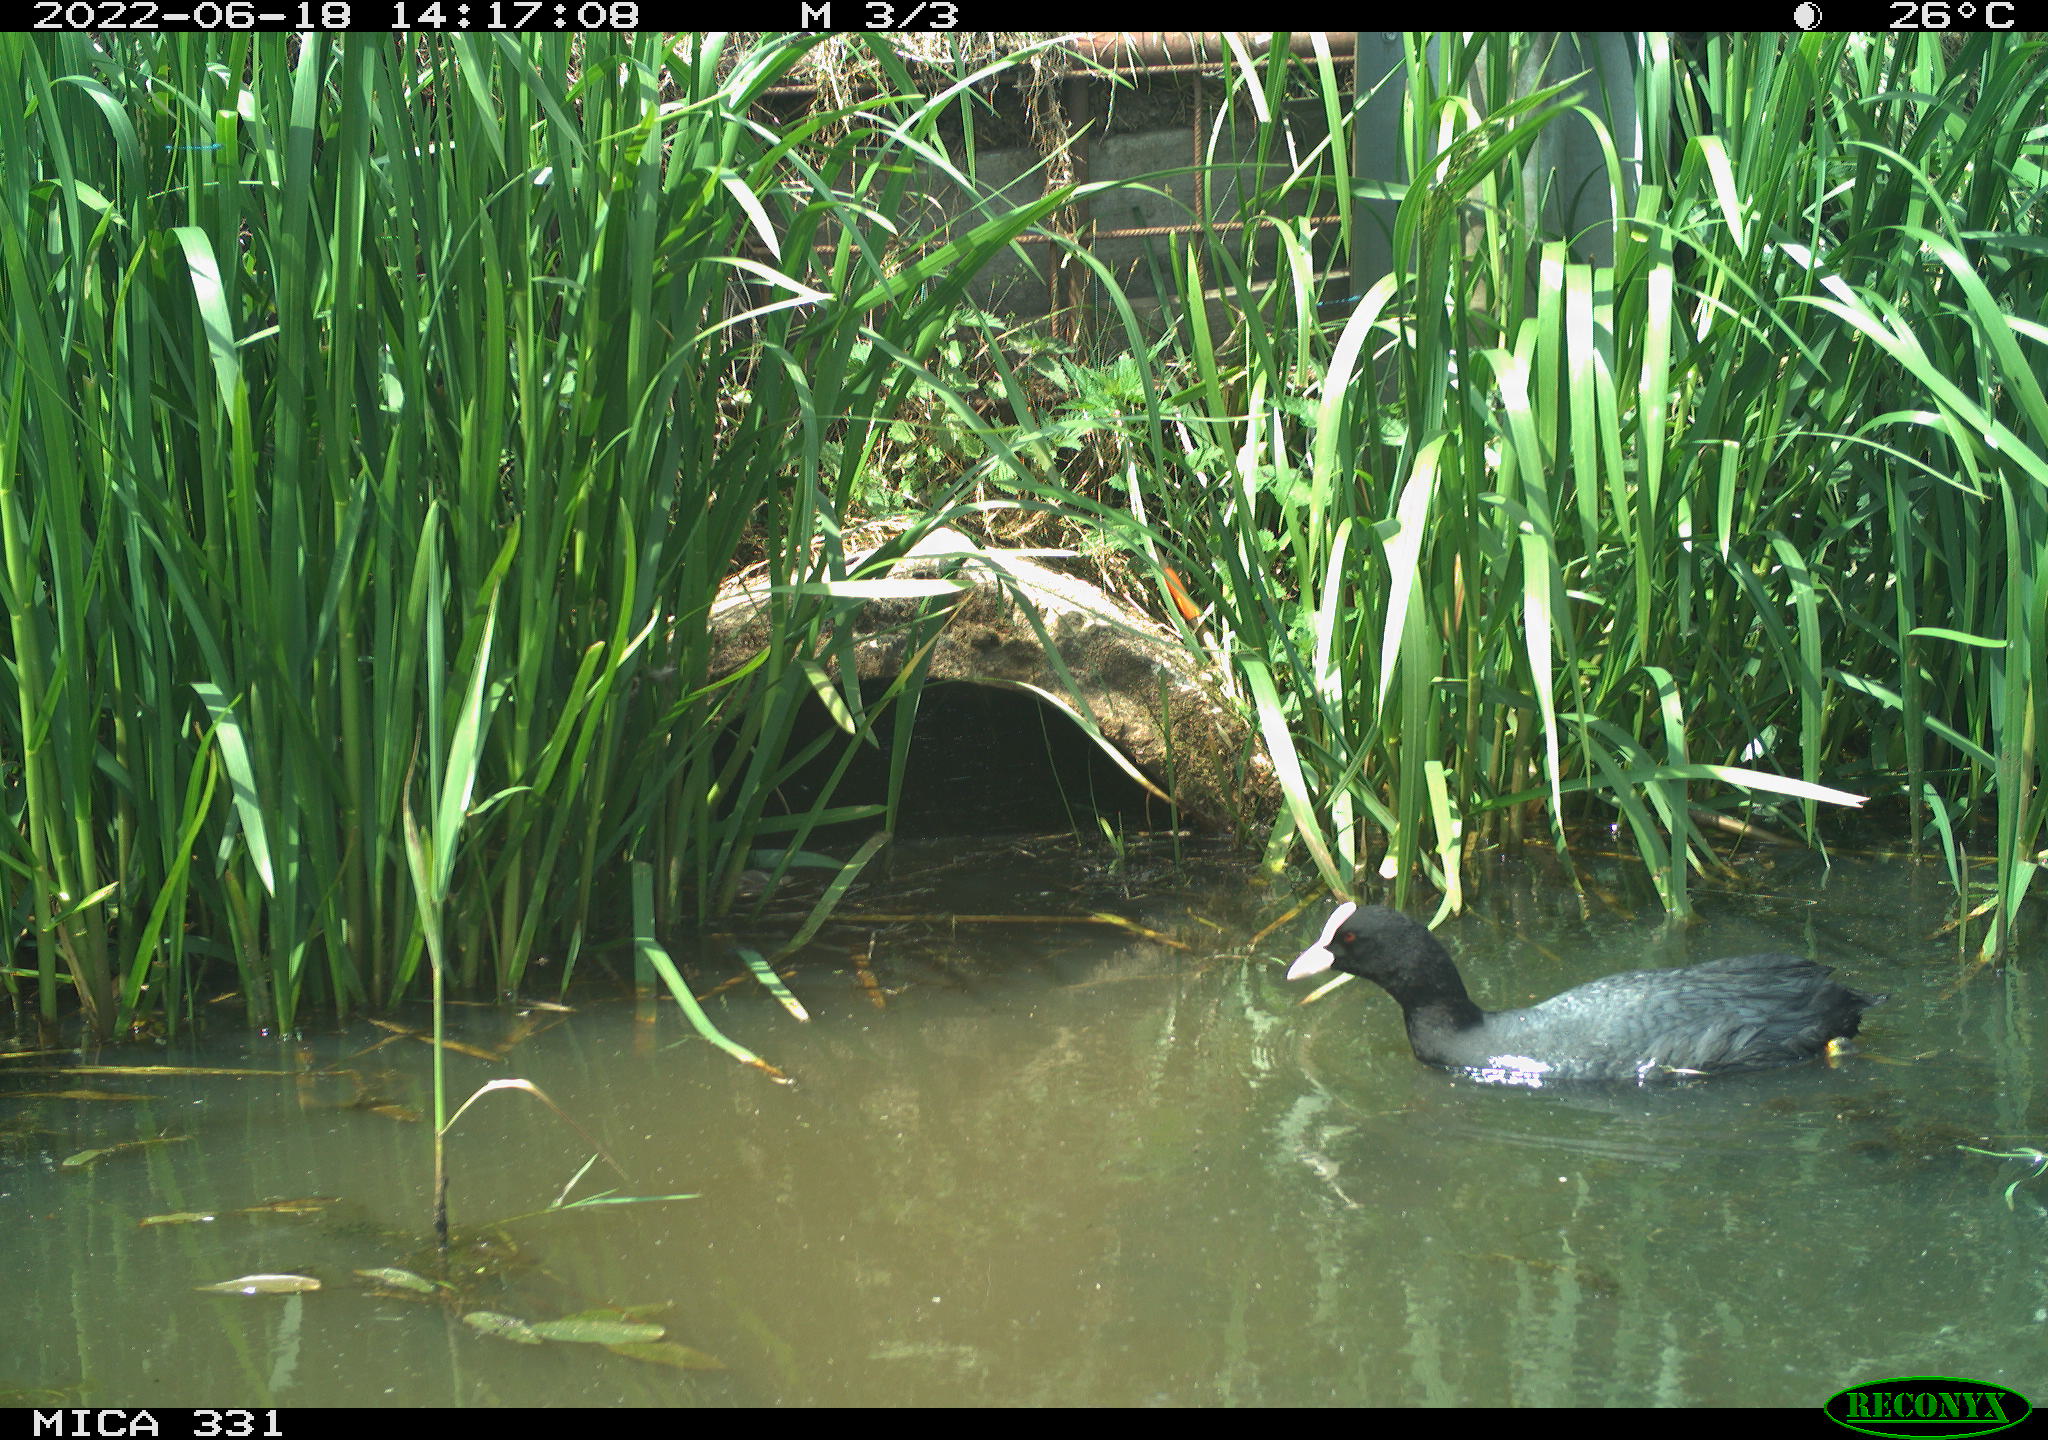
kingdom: Animalia
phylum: Chordata
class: Aves
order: Gruiformes
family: Rallidae
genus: Fulica
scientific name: Fulica atra
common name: Eurasian coot
